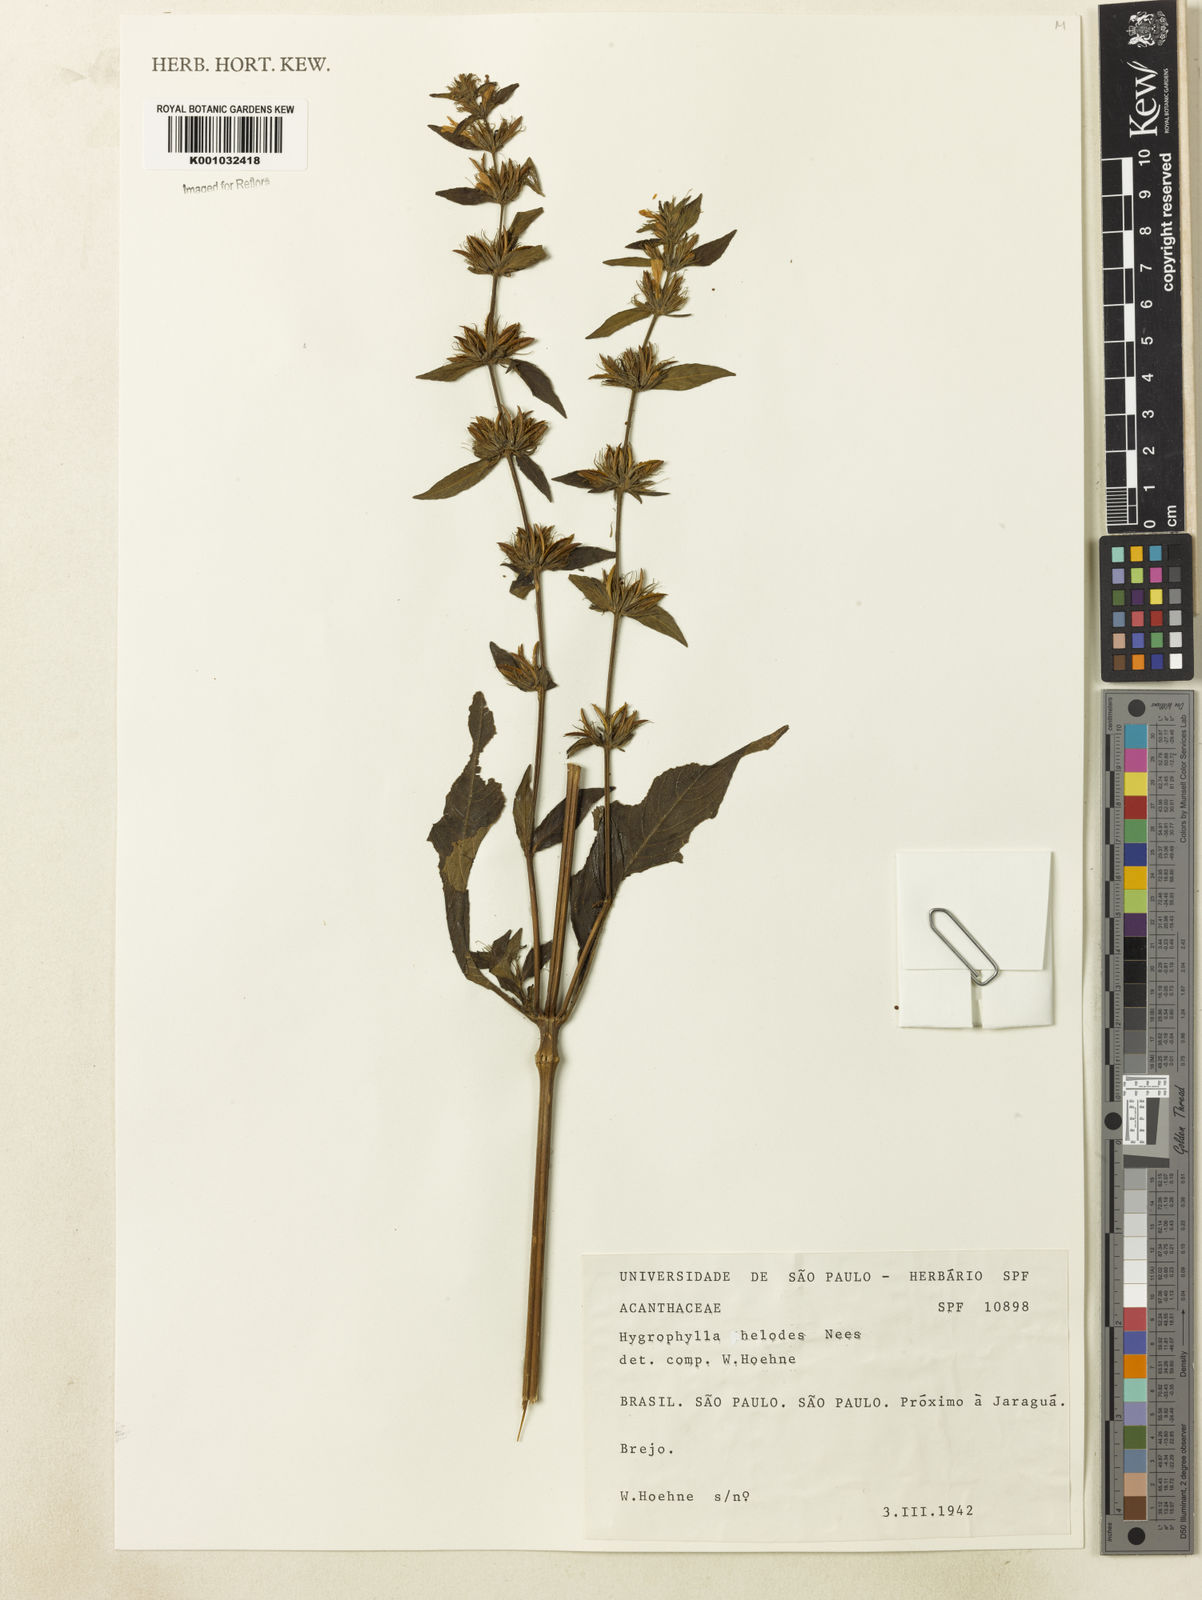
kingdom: Plantae
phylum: Tracheophyta
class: Magnoliopsida
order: Lamiales
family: Acanthaceae
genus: Hygrophila
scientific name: Hygrophila costata
